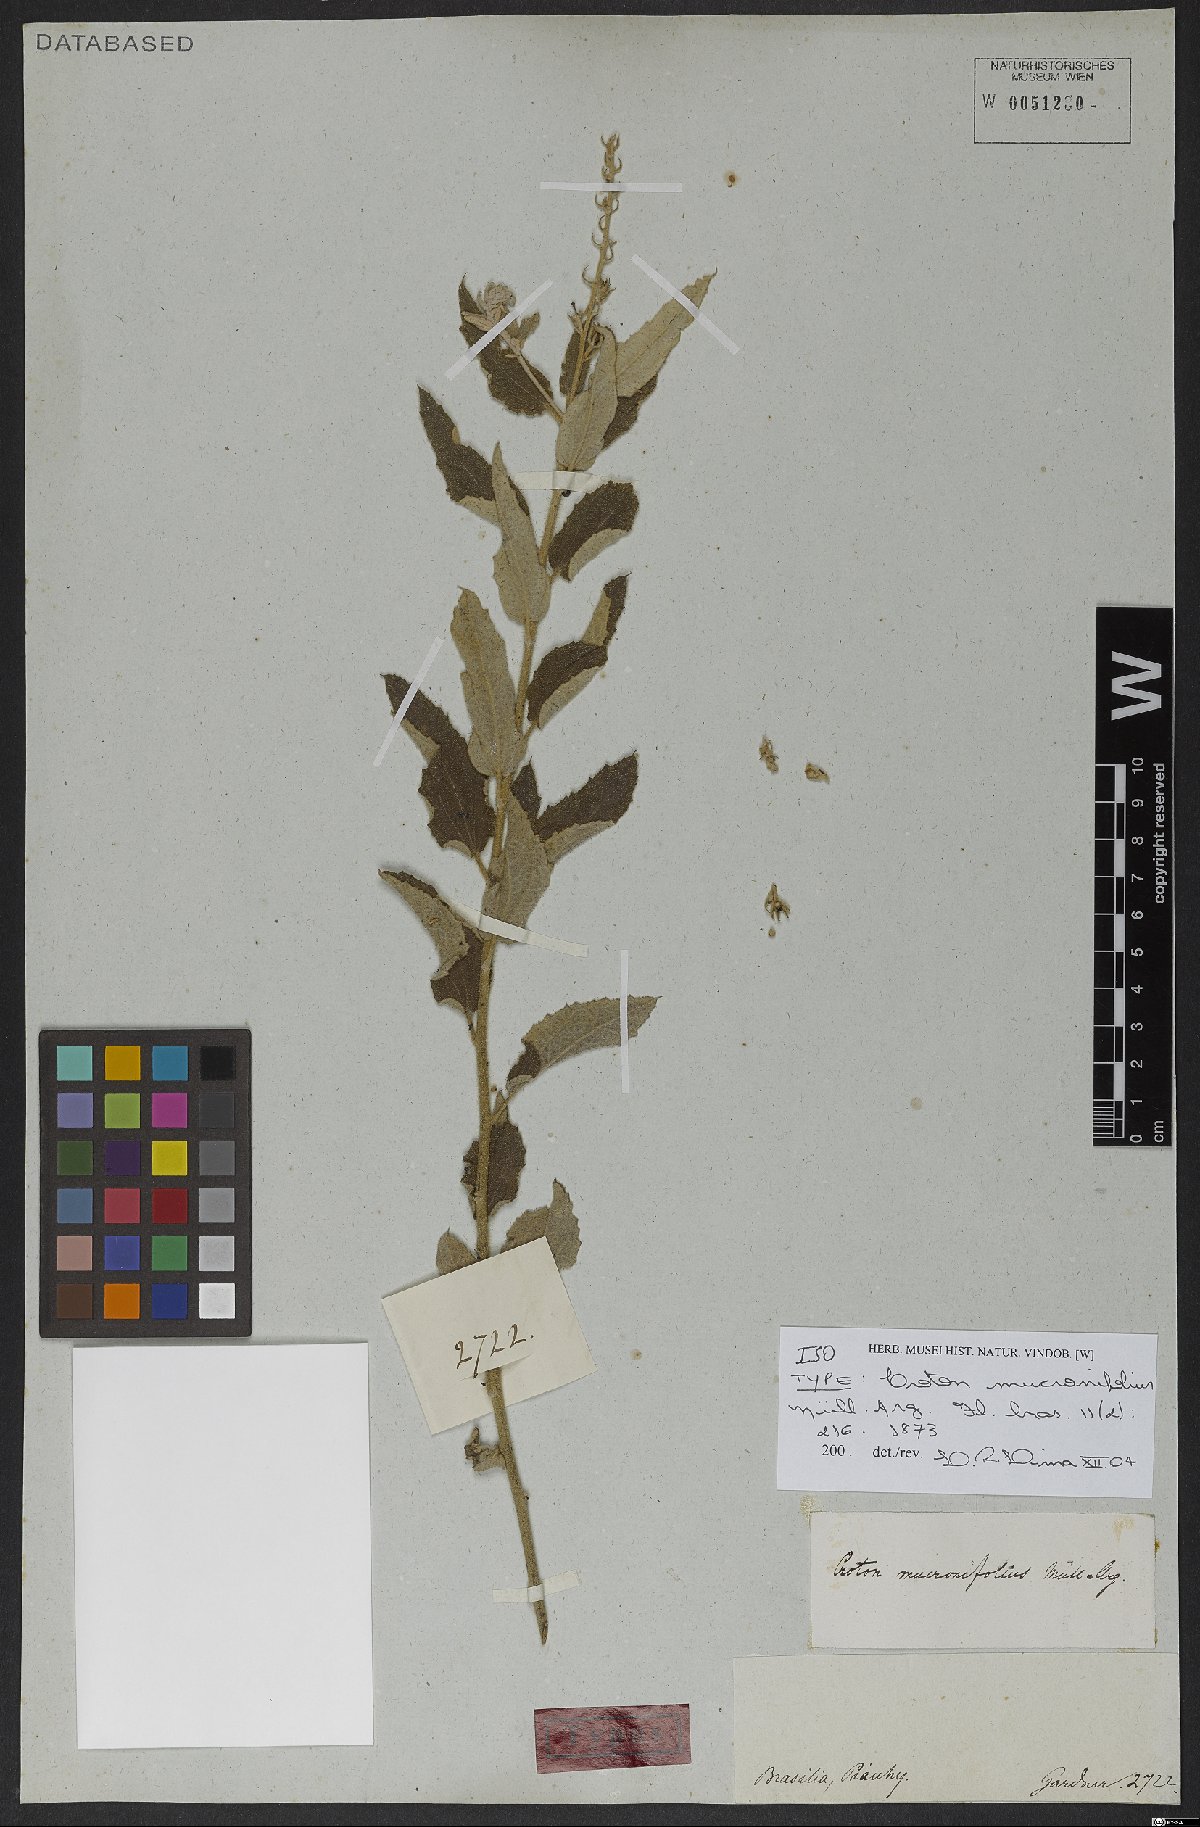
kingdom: Plantae
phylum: Tracheophyta
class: Magnoliopsida
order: Malpighiales
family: Euphorbiaceae
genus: Croton
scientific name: Croton mucronifolius
